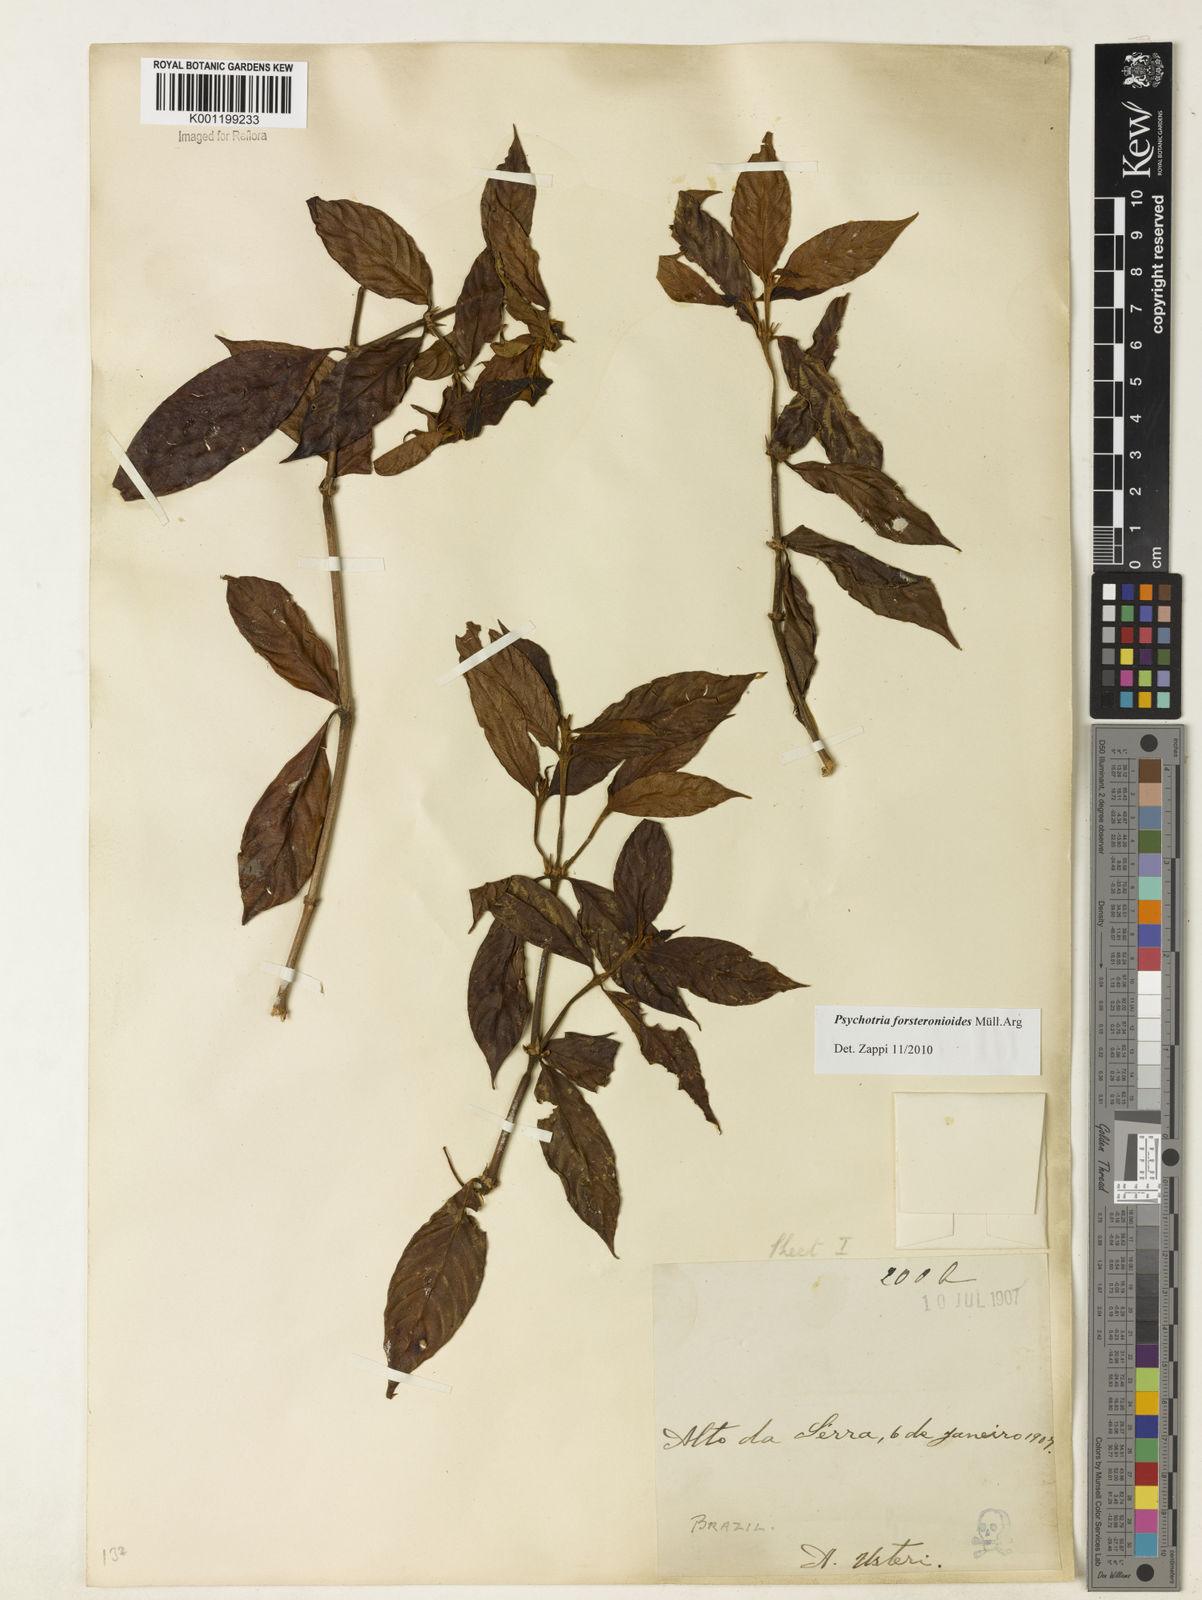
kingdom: Plantae
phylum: Tracheophyta
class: Magnoliopsida
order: Gentianales
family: Rubiaceae
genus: Psychotria
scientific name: Psychotria
